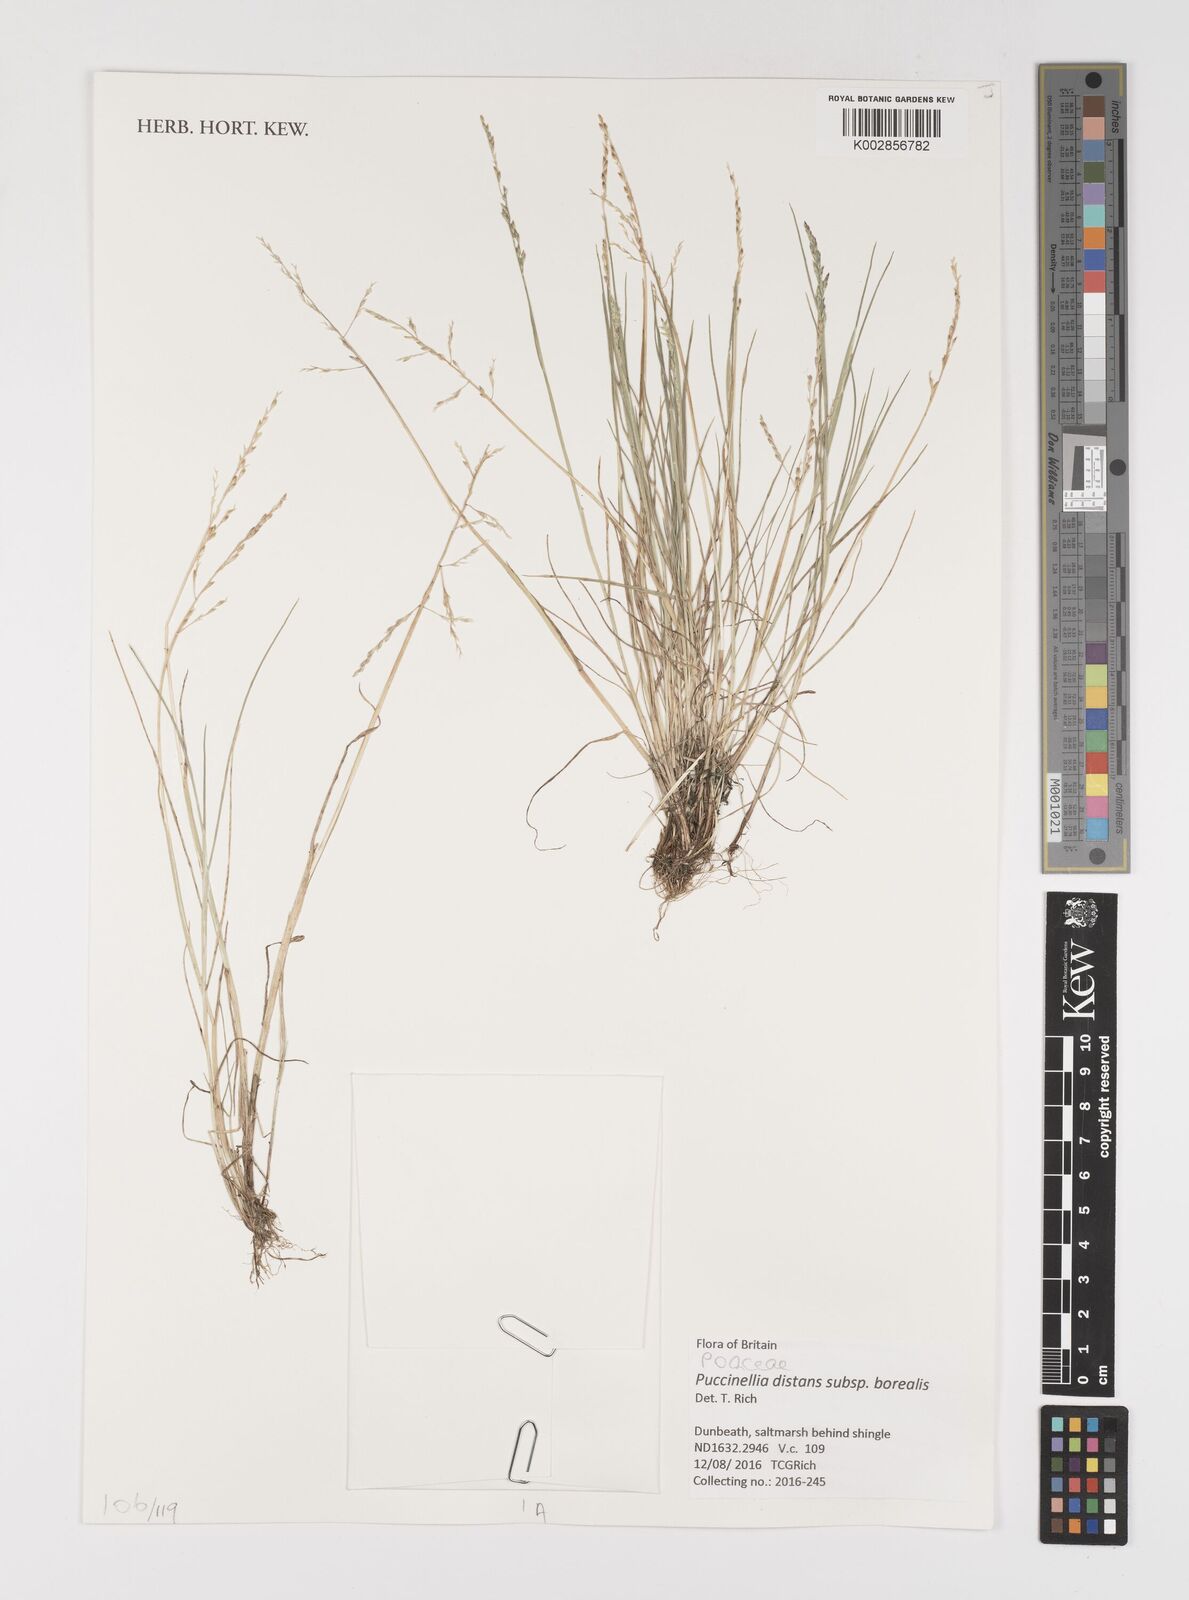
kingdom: Plantae
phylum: Tracheophyta
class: Liliopsida
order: Poales
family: Poaceae
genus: Puccinellia
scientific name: Puccinellia distans
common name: Weeping alkaligrass
